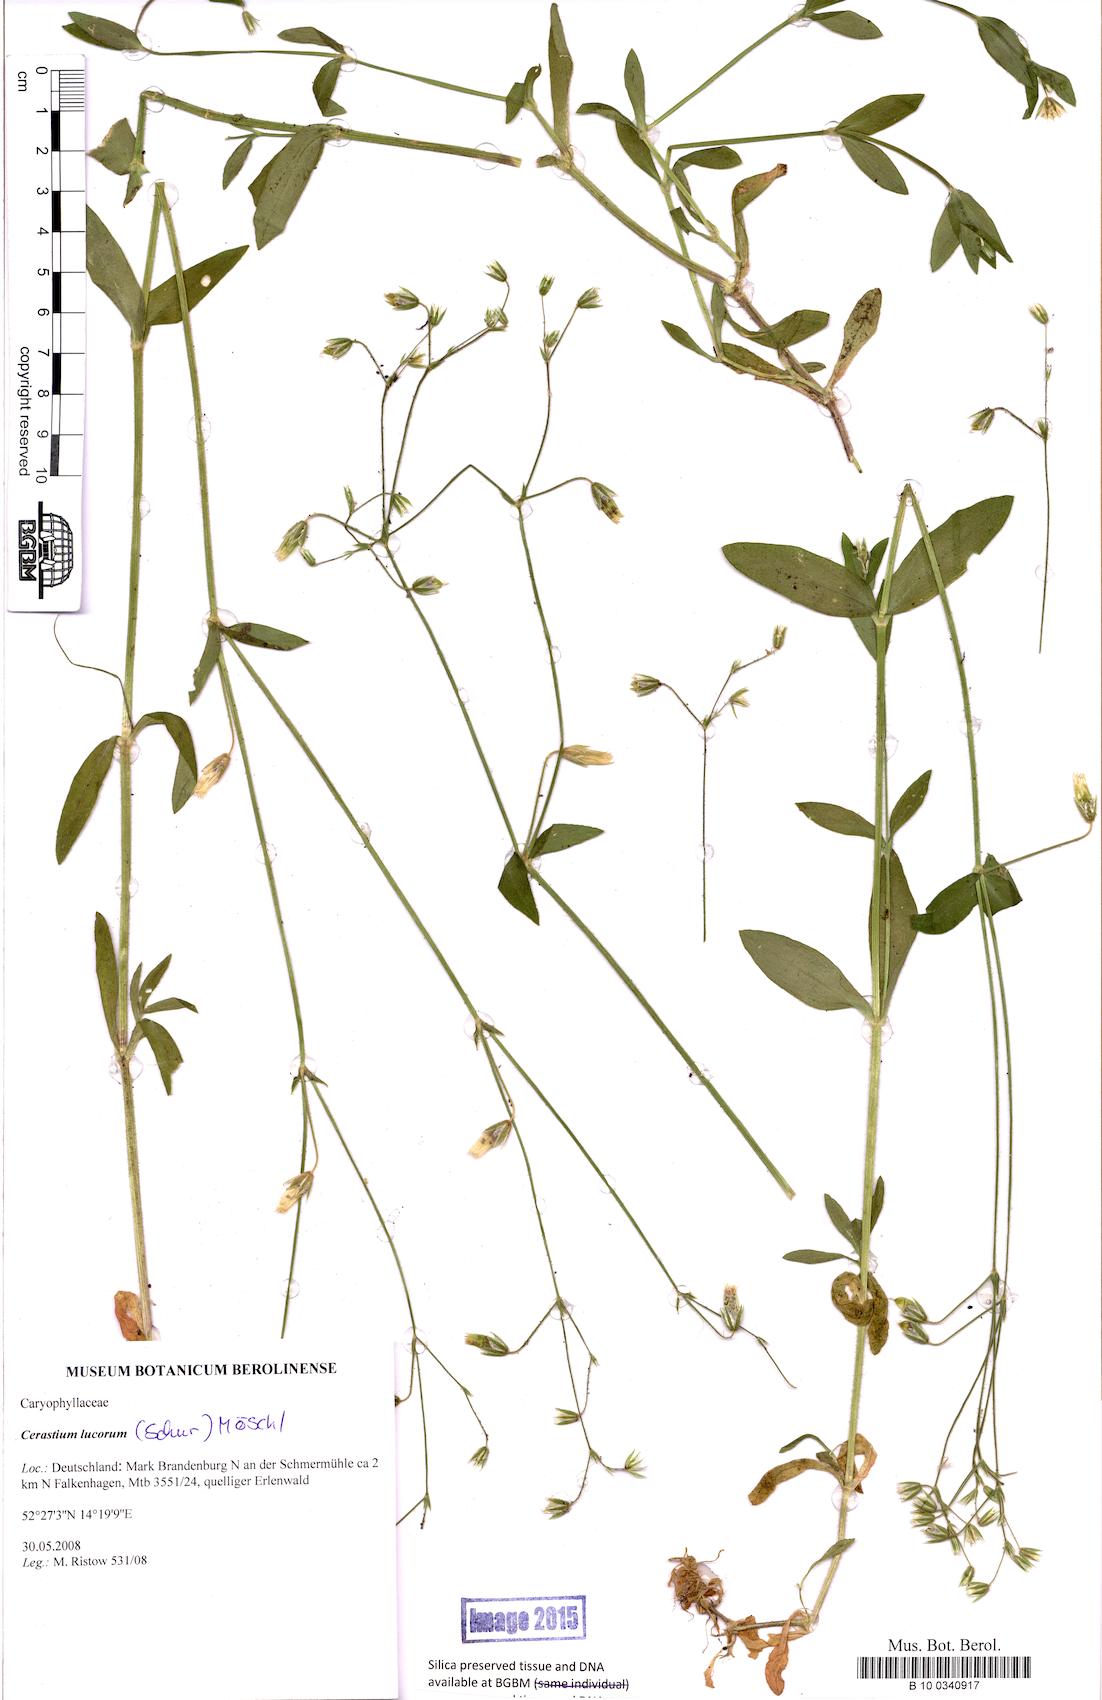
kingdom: Plantae
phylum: Tracheophyta
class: Magnoliopsida
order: Caryophyllales
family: Caryophyllaceae
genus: Cerastium
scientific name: Cerastium lucorum
